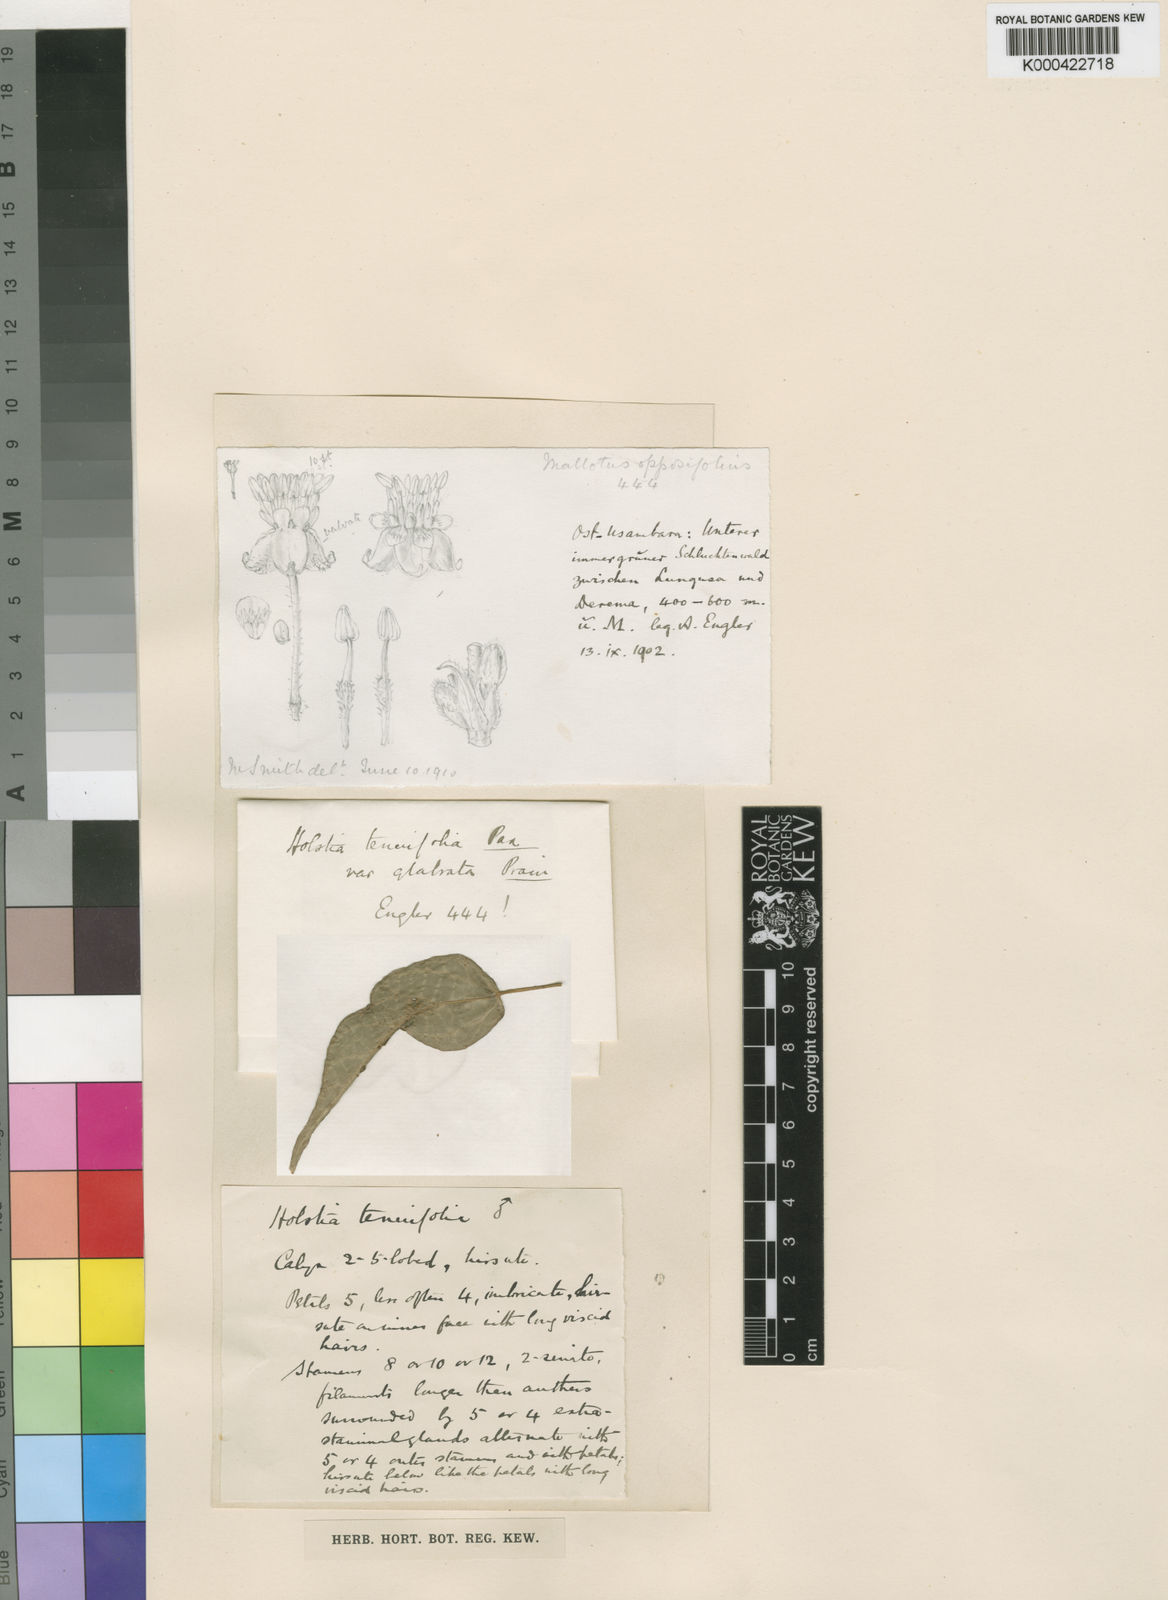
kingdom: Plantae
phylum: Tracheophyta
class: Magnoliopsida
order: Malpighiales
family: Euphorbiaceae
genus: Tannodia
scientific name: Tannodia tenuifolia
